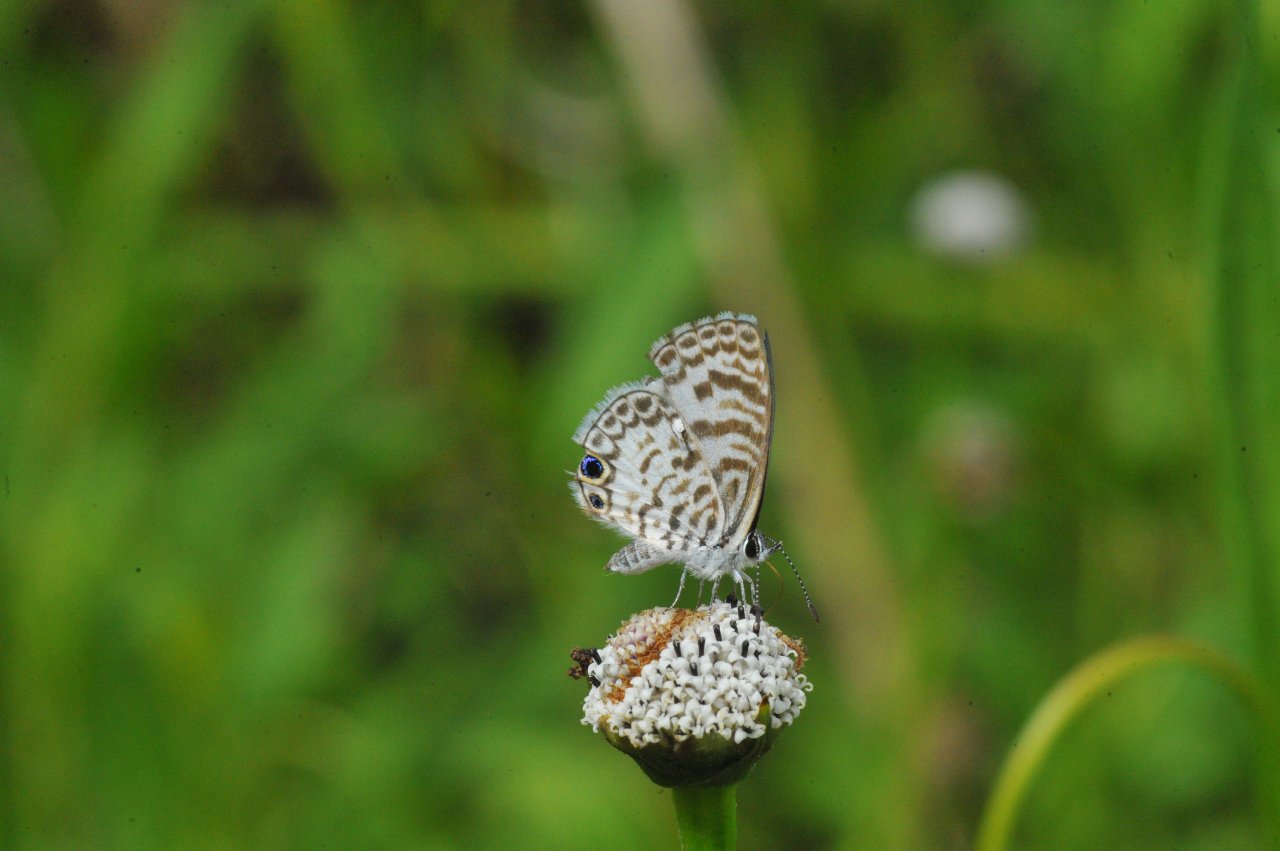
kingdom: Animalia
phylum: Arthropoda
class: Insecta
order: Lepidoptera
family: Lycaenidae
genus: Leptotes
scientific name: Leptotes cassius
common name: Cassius Blue
